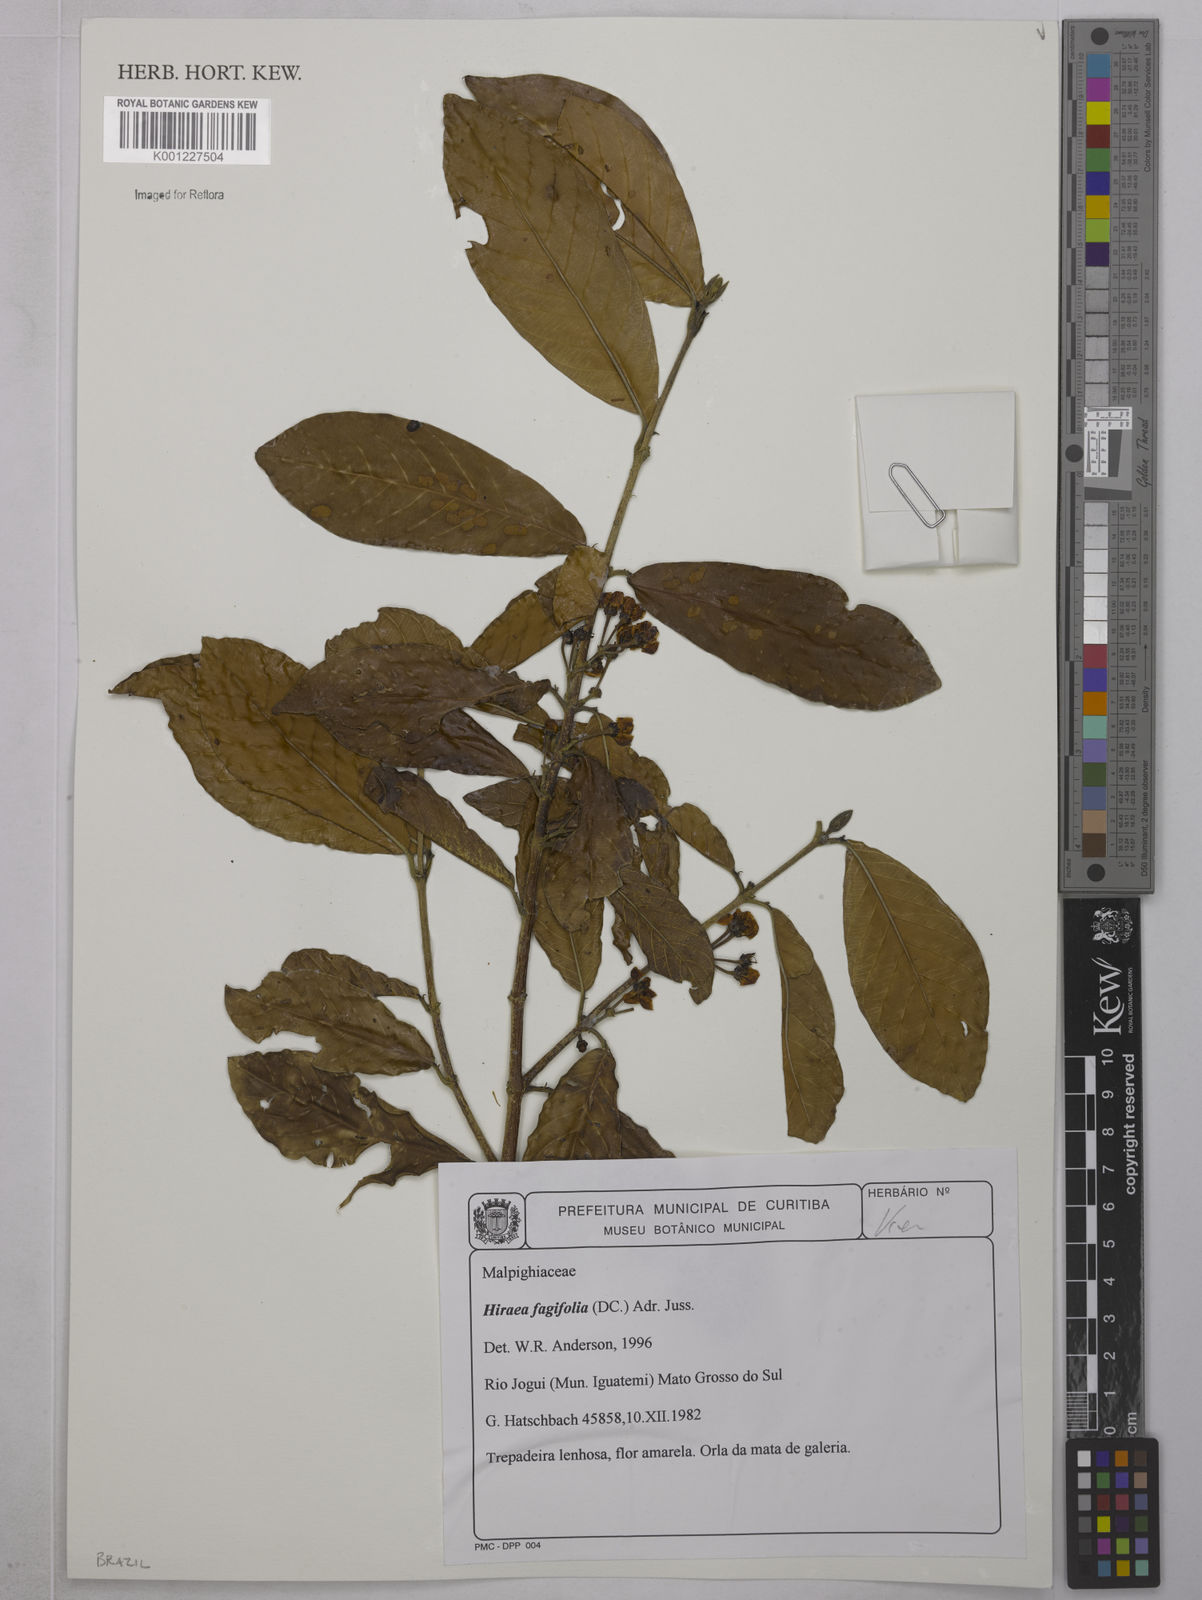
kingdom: Plantae
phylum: Tracheophyta
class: Magnoliopsida
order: Malpighiales
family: Malpighiaceae
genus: Hiraea
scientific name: Hiraea fagifolia
